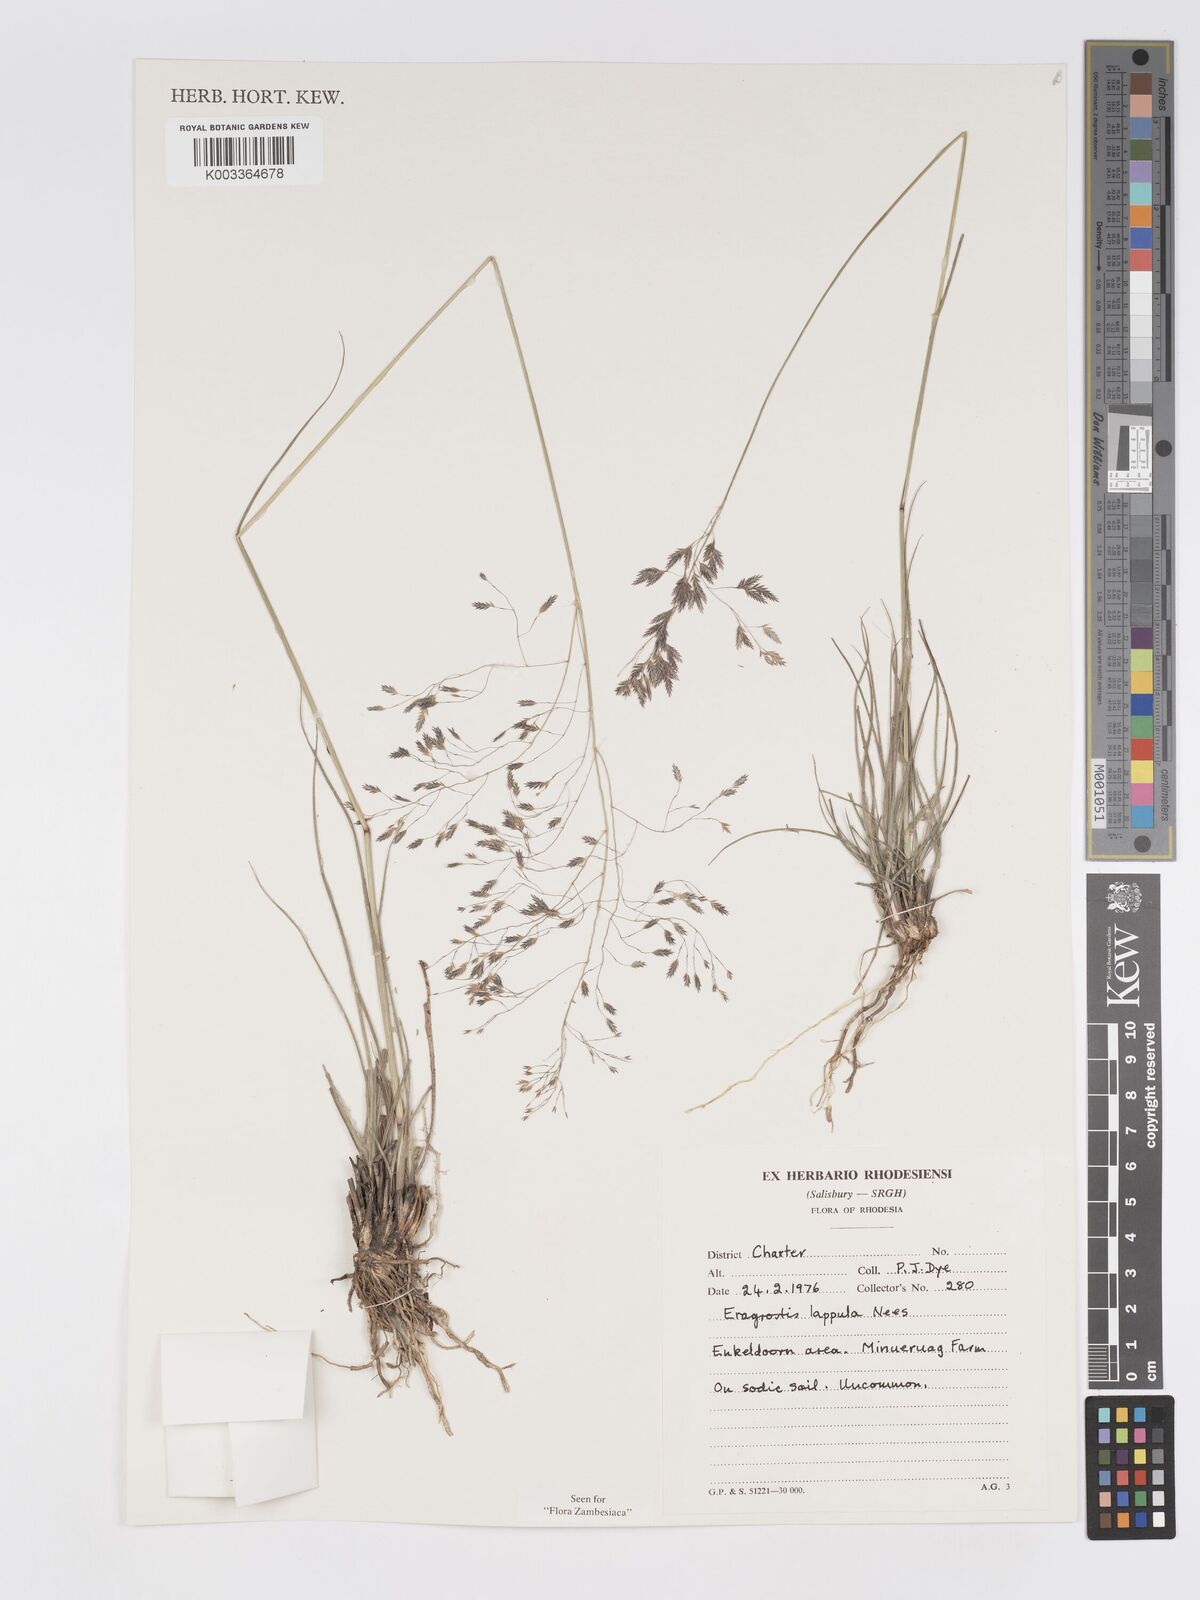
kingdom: Plantae
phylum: Tracheophyta
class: Liliopsida
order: Poales
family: Poaceae
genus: Eragrostis
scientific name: Eragrostis lappula
